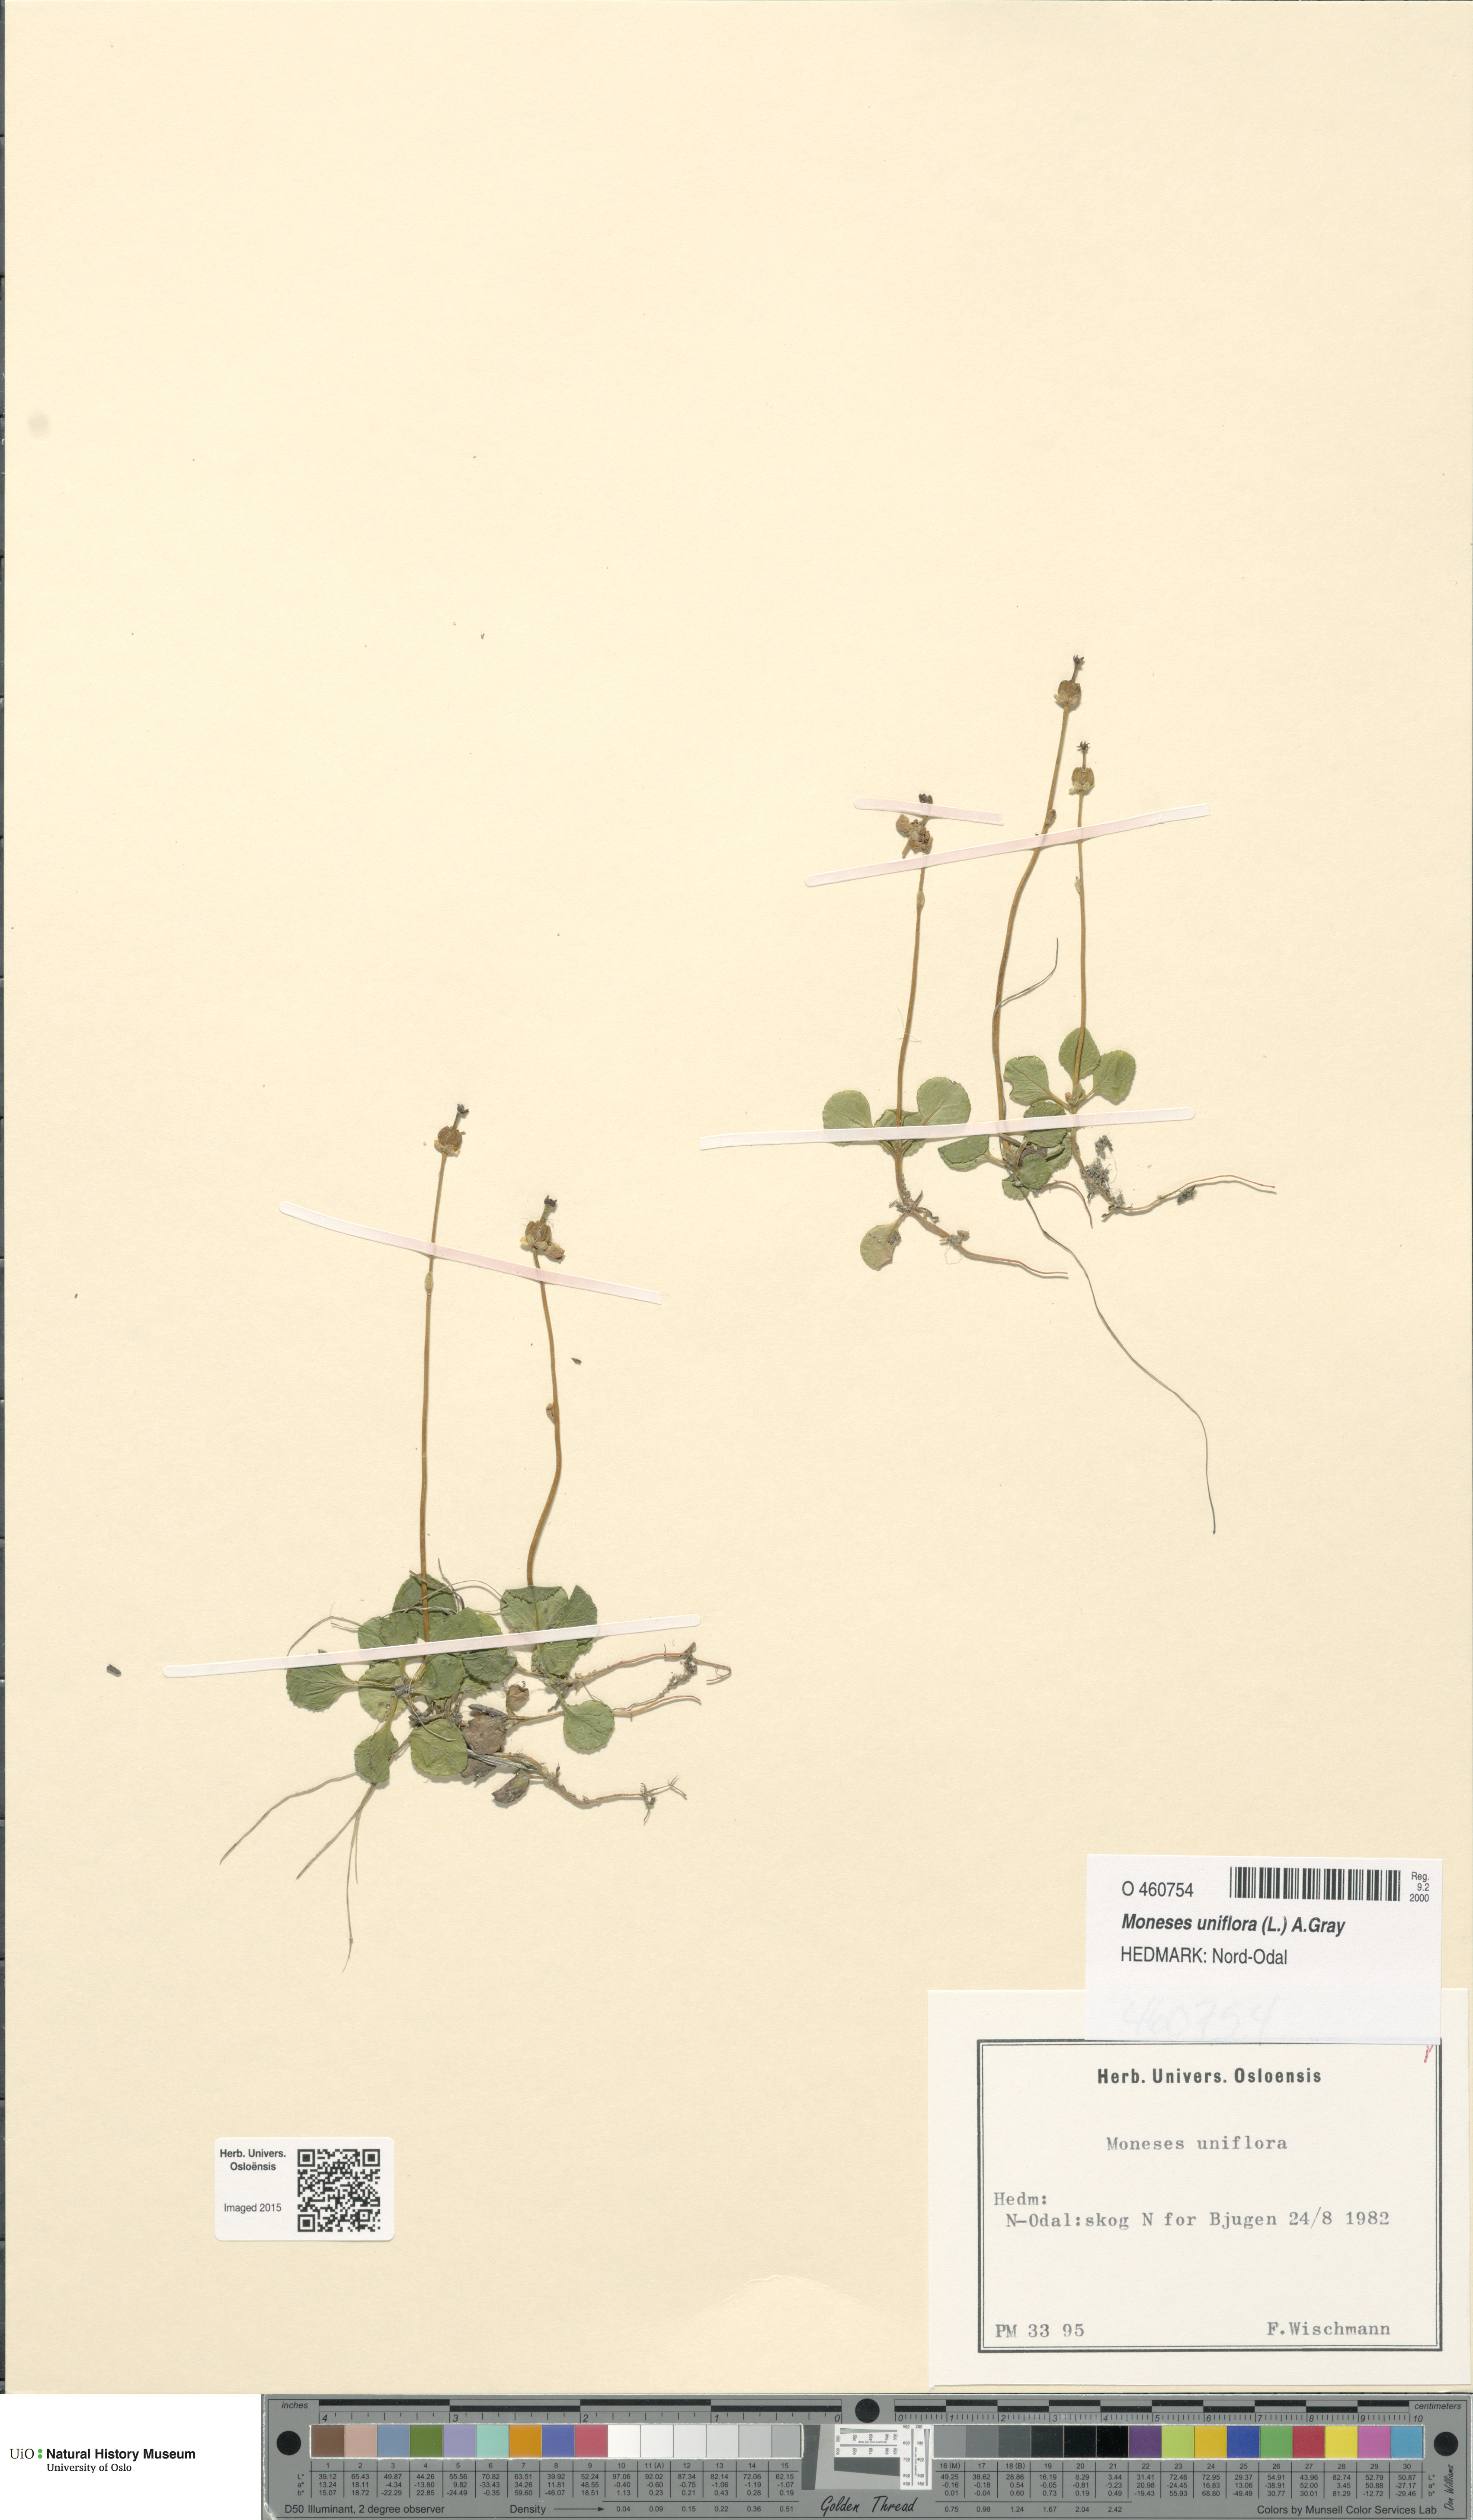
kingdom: Plantae
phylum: Tracheophyta
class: Magnoliopsida
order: Ericales
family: Ericaceae
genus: Moneses
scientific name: Moneses uniflora
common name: One-flowered wintergreen
